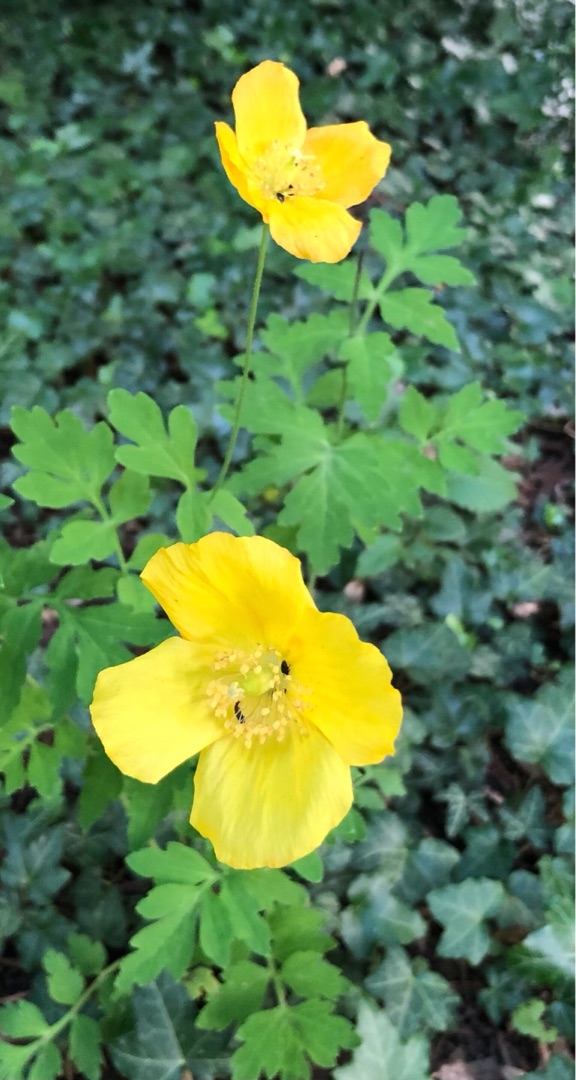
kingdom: Plantae
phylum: Tracheophyta
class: Magnoliopsida
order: Ranunculales
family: Papaveraceae
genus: Papaver
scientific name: Papaver cambricum
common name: Skov-valmue
